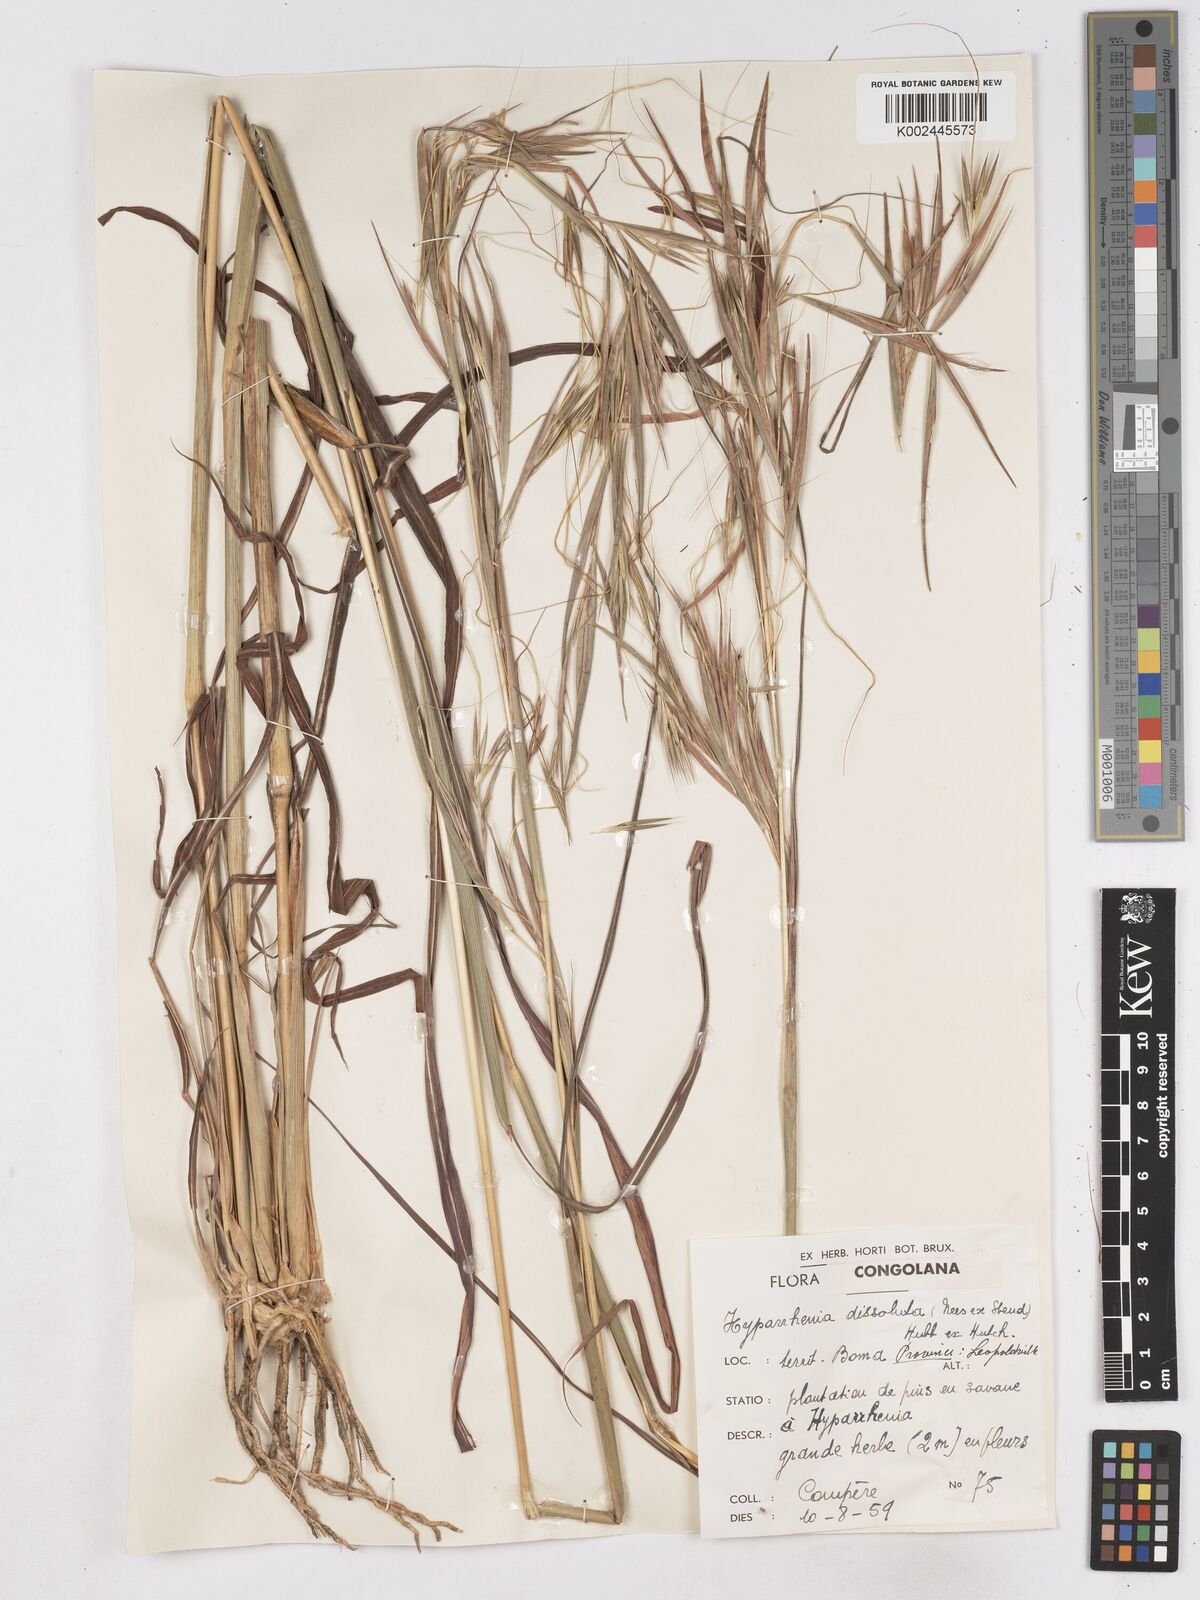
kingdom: Plantae
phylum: Tracheophyta
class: Liliopsida
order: Poales
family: Poaceae
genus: Hyperthelia
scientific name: Hyperthelia dissoluta
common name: Yellow thatching grass
